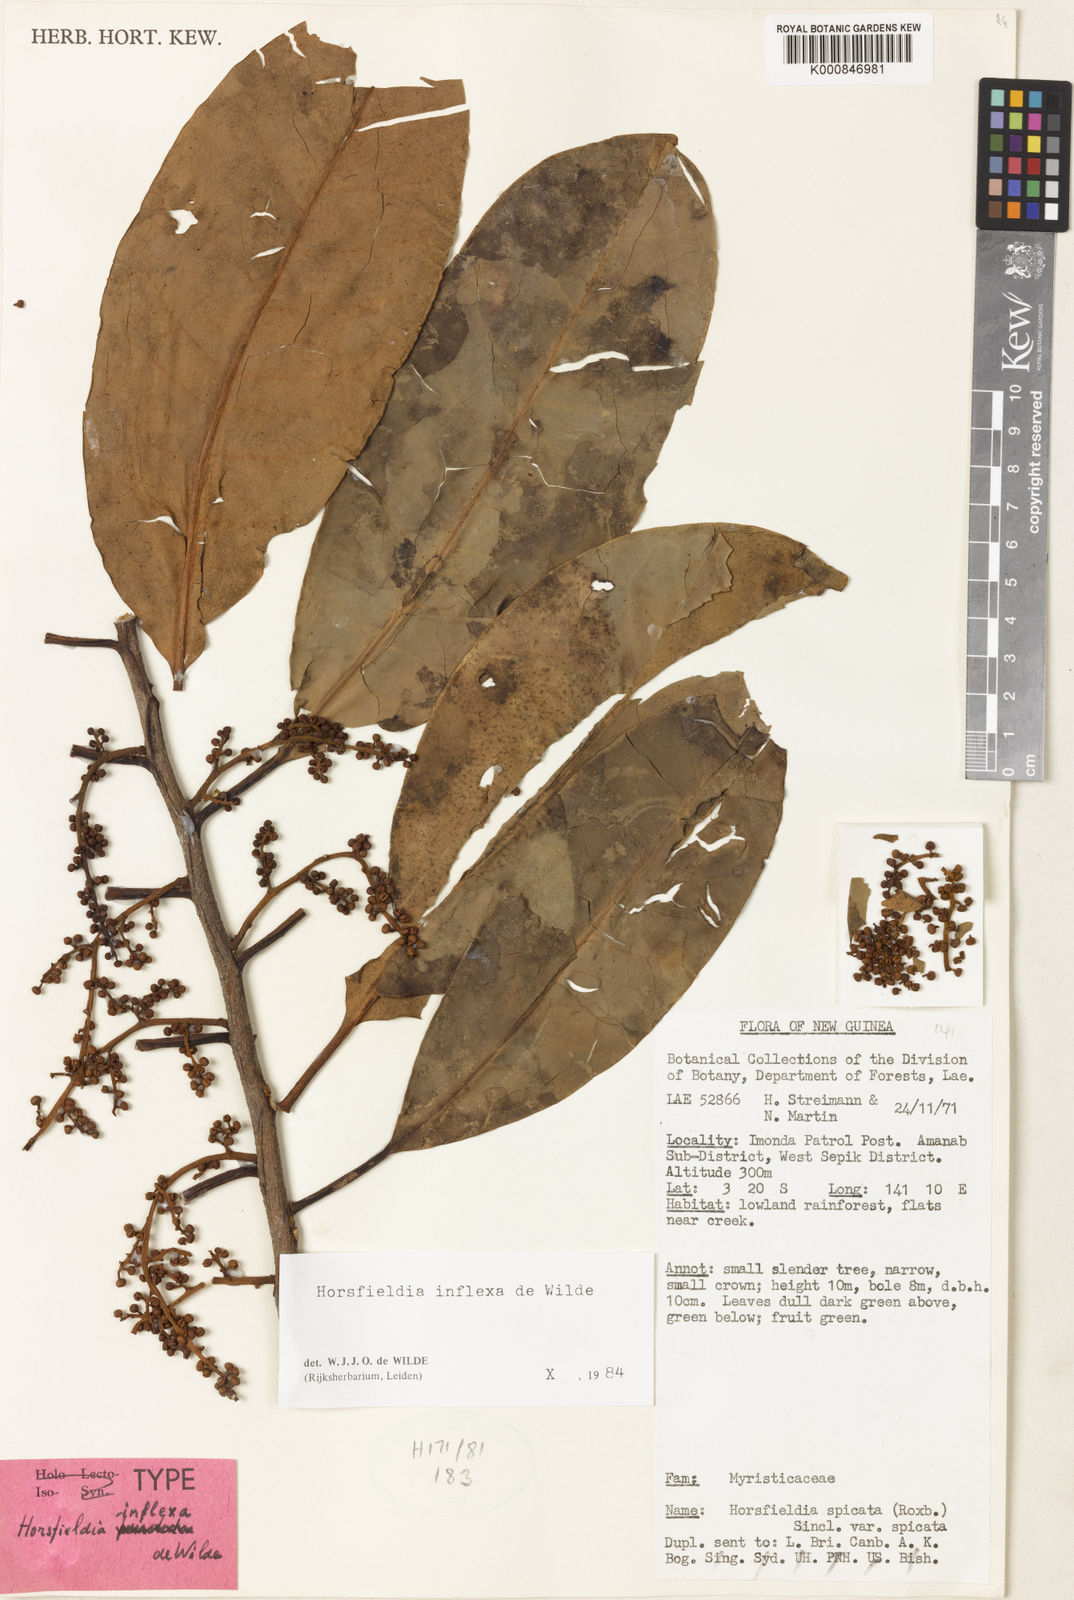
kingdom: Plantae
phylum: Tracheophyta
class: Magnoliopsida
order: Magnoliales
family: Myristicaceae
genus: Horsfieldia
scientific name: Horsfieldia inflexa
